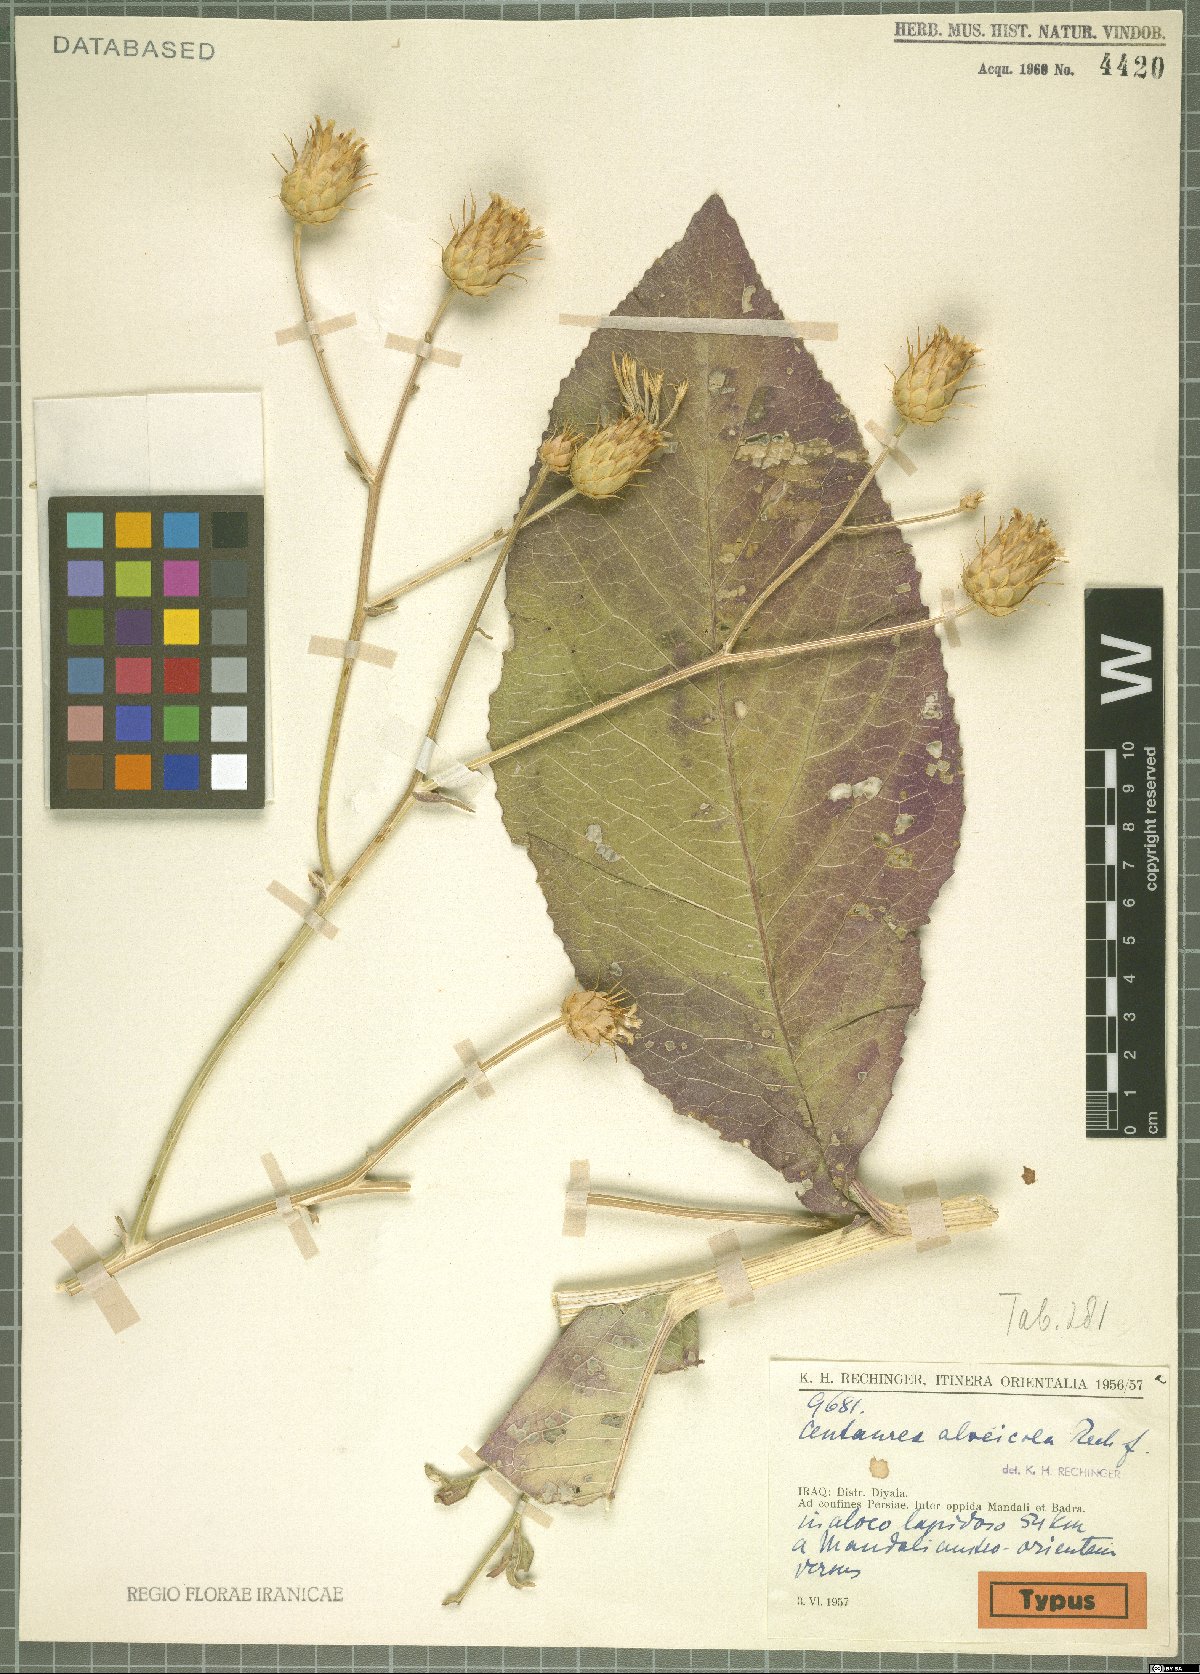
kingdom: Plantae
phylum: Tracheophyta
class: Magnoliopsida
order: Asterales
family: Asteraceae
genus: Centaurea
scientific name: Centaurea alveicola
